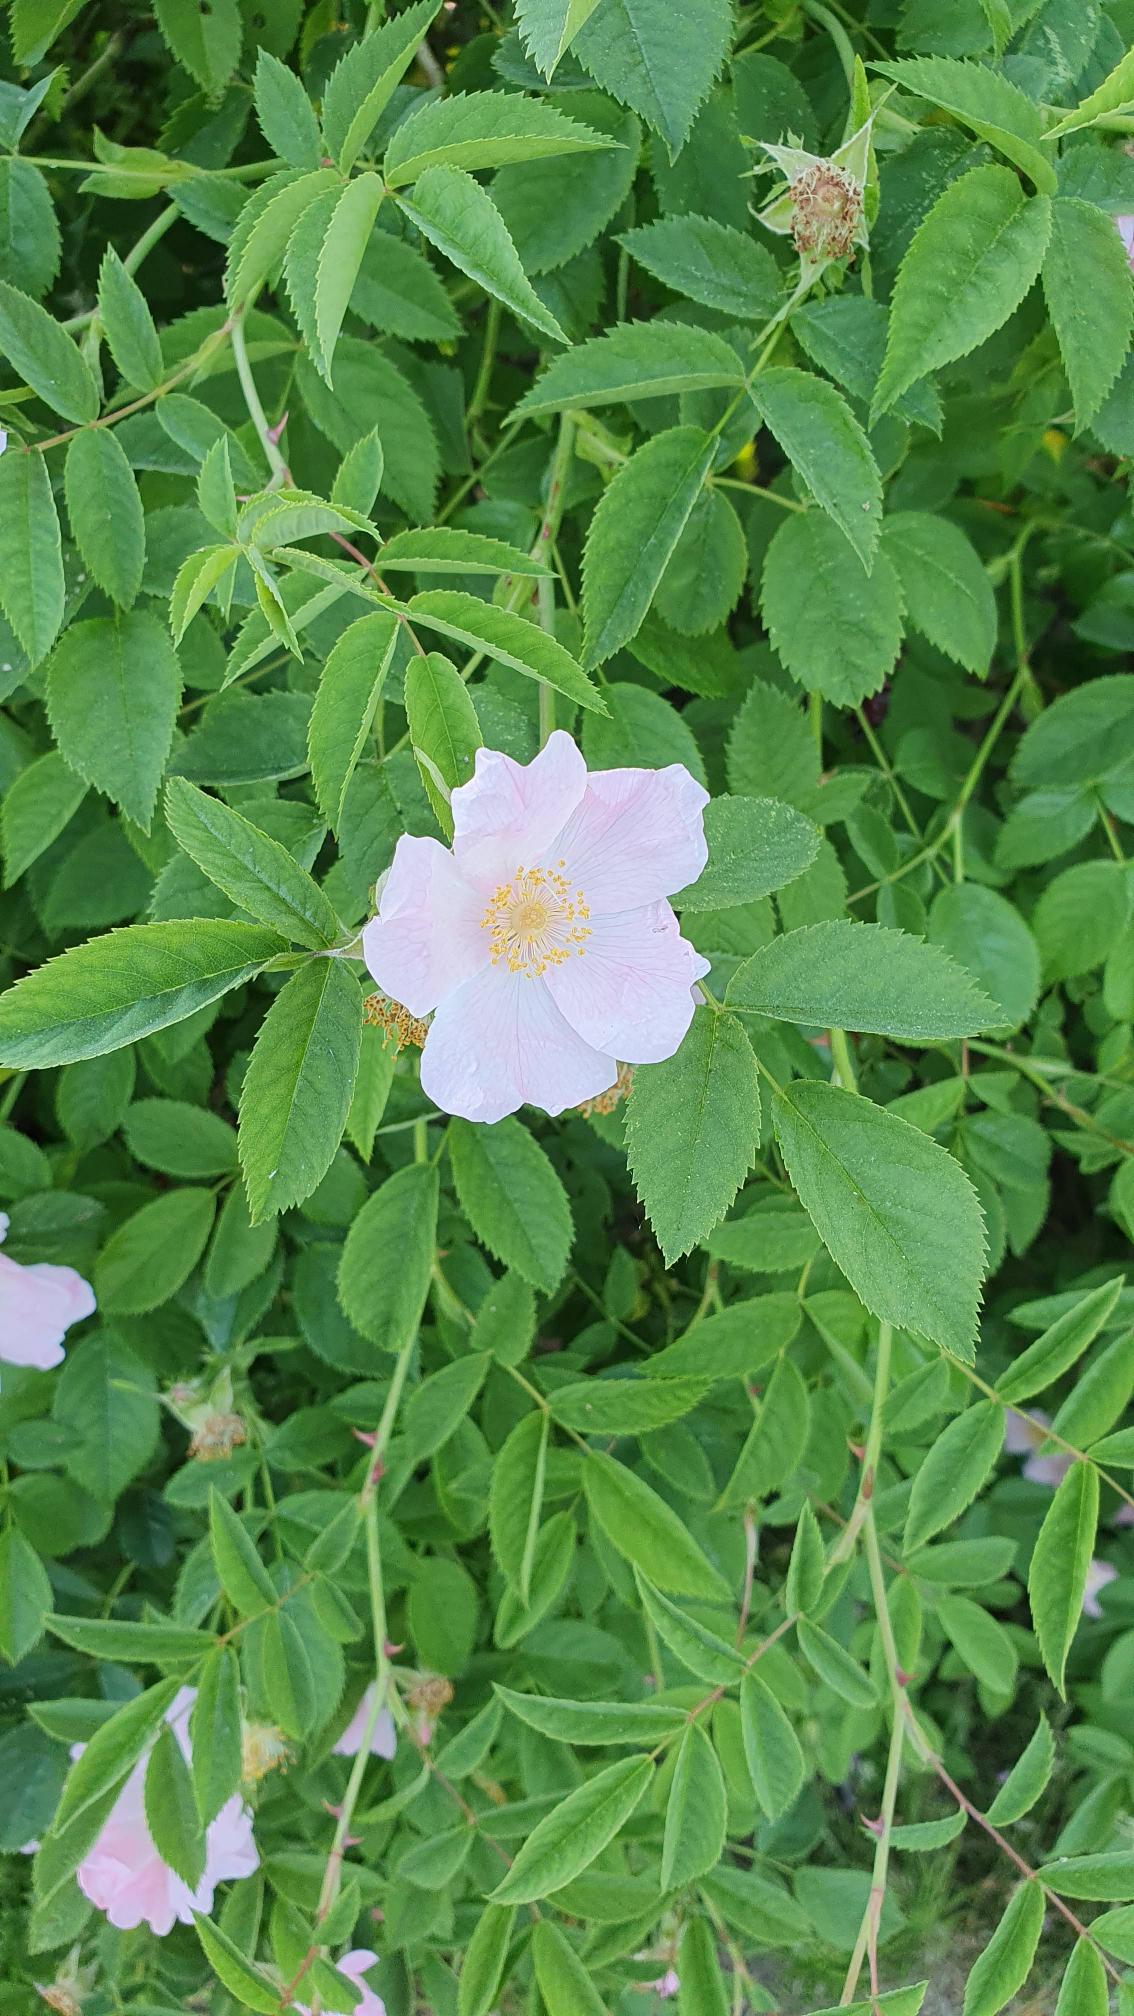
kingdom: Plantae
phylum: Tracheophyta
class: Magnoliopsida
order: Rosales
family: Rosaceae
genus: Rosa
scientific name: Rosa canina
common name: Hunde-rose
